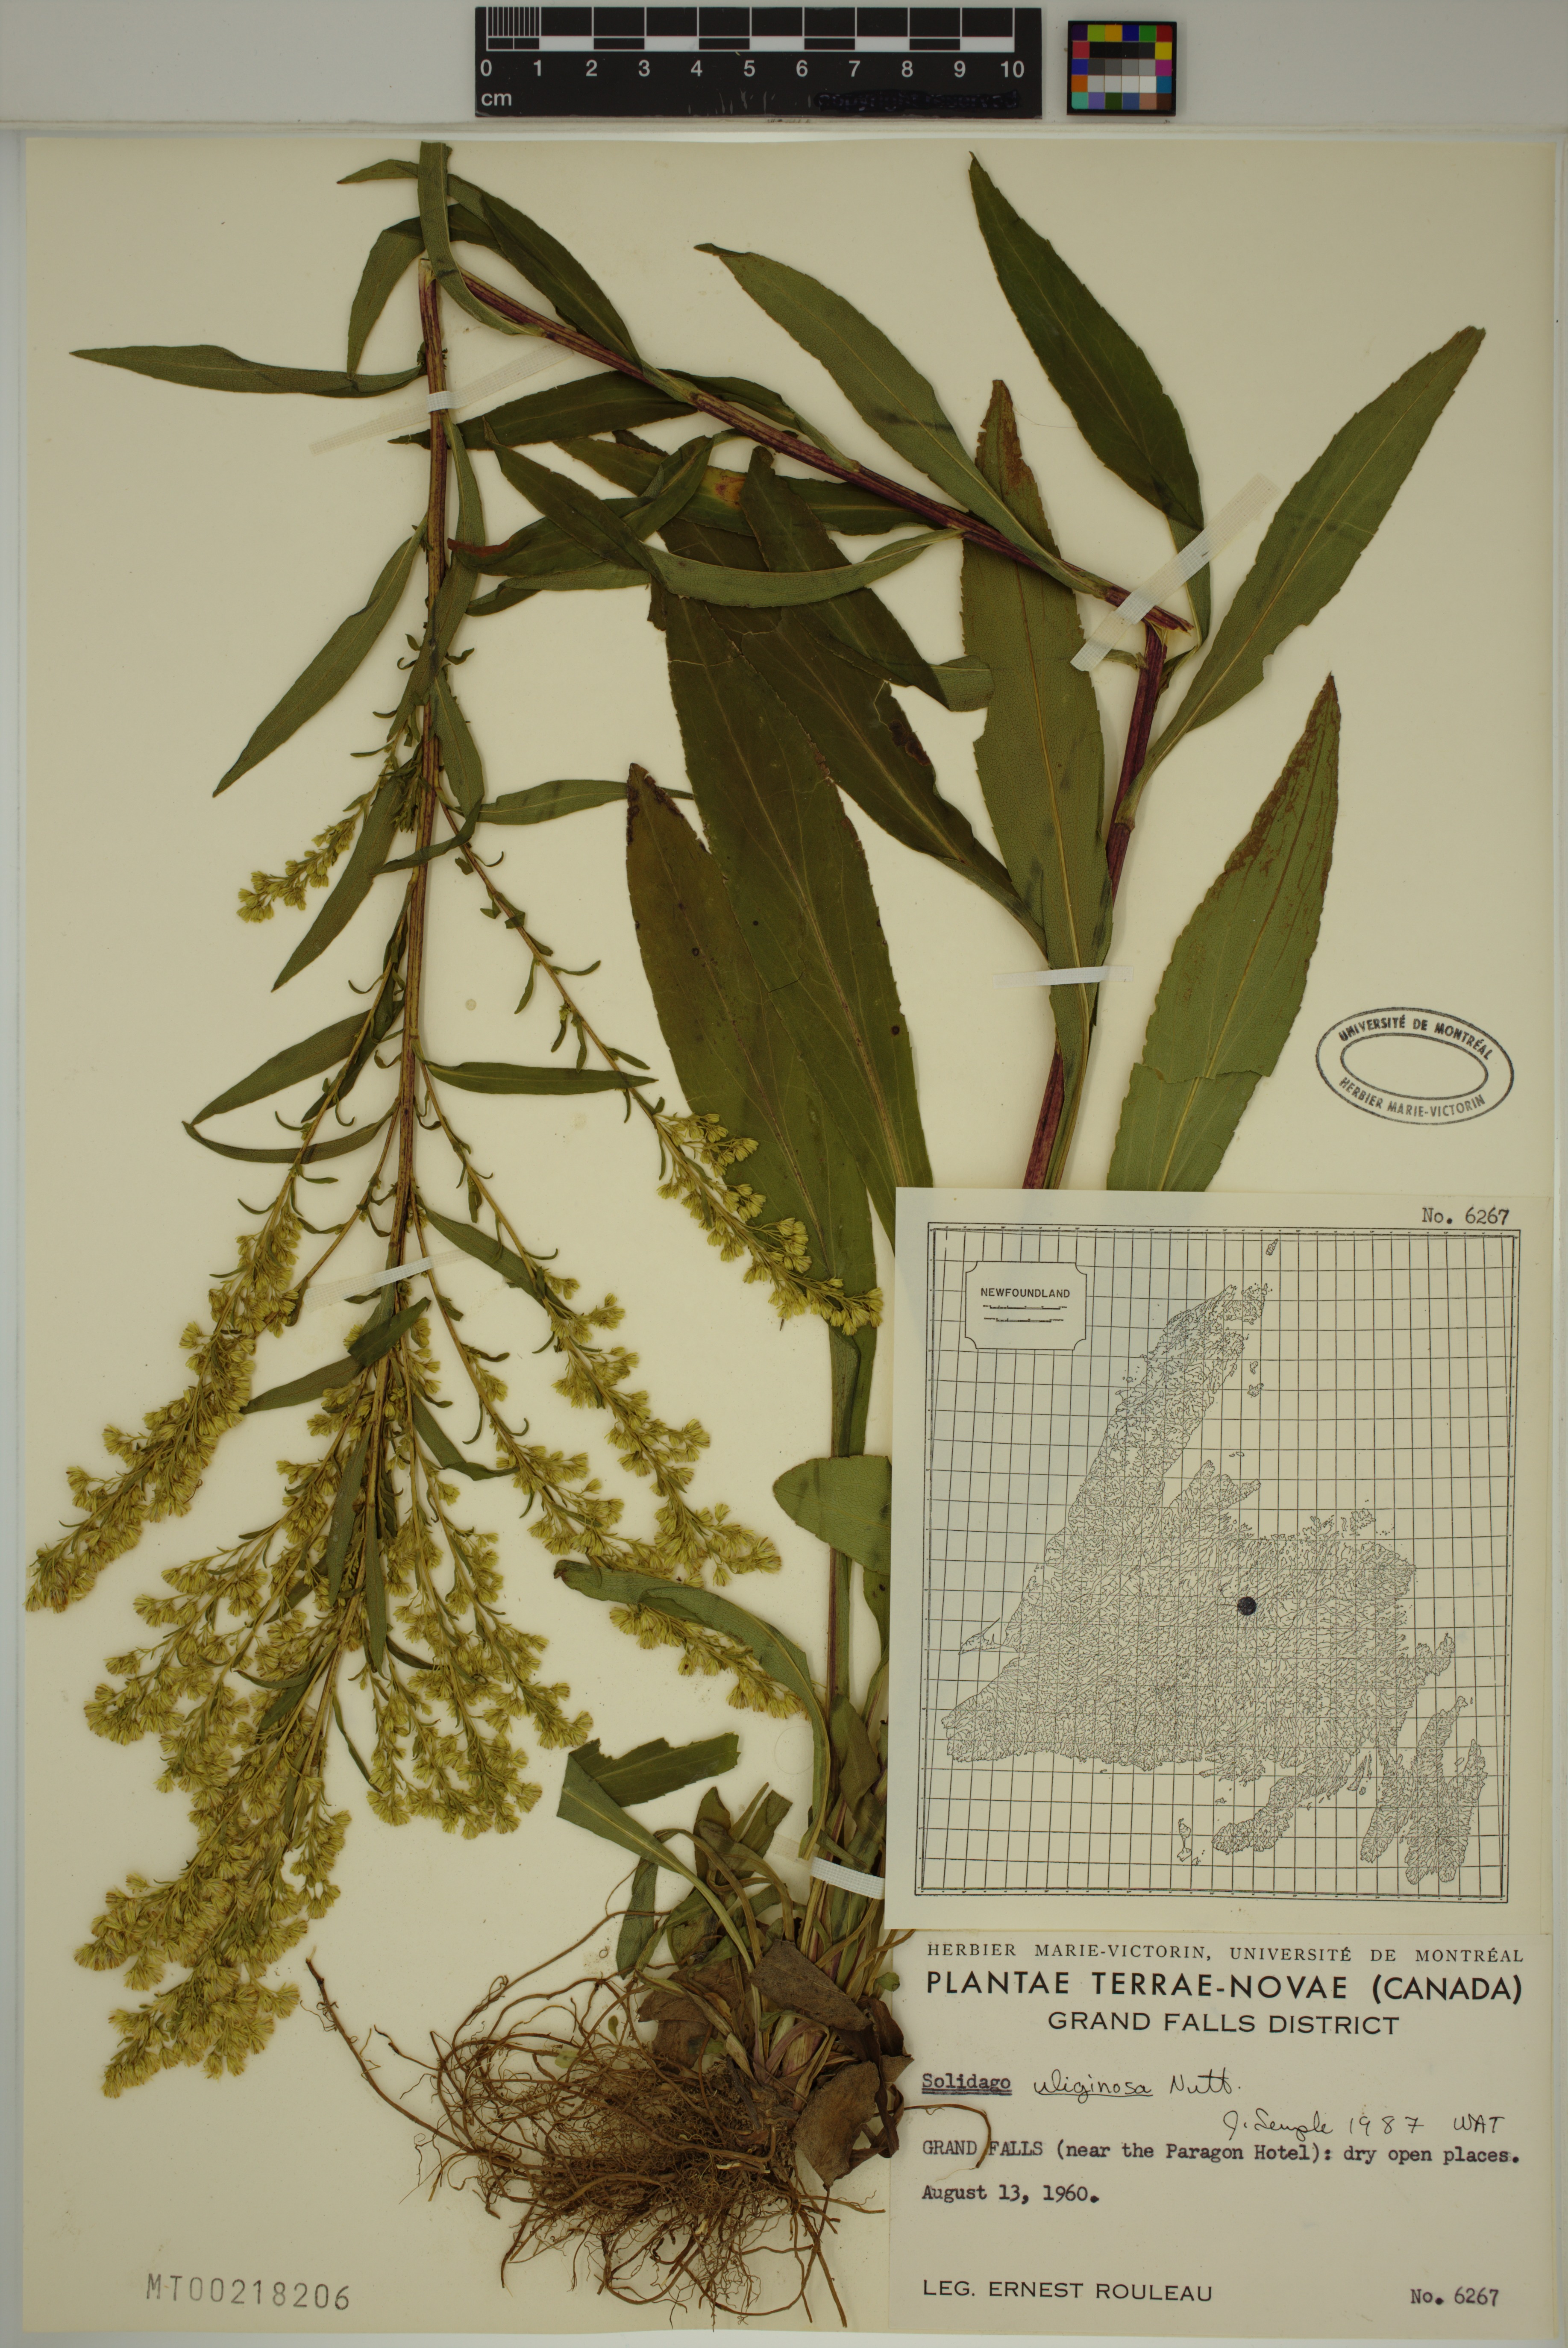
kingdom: Plantae
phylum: Tracheophyta
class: Magnoliopsida
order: Asterales
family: Asteraceae
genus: Solidago
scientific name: Solidago uliginosa
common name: Bog goldenrod
